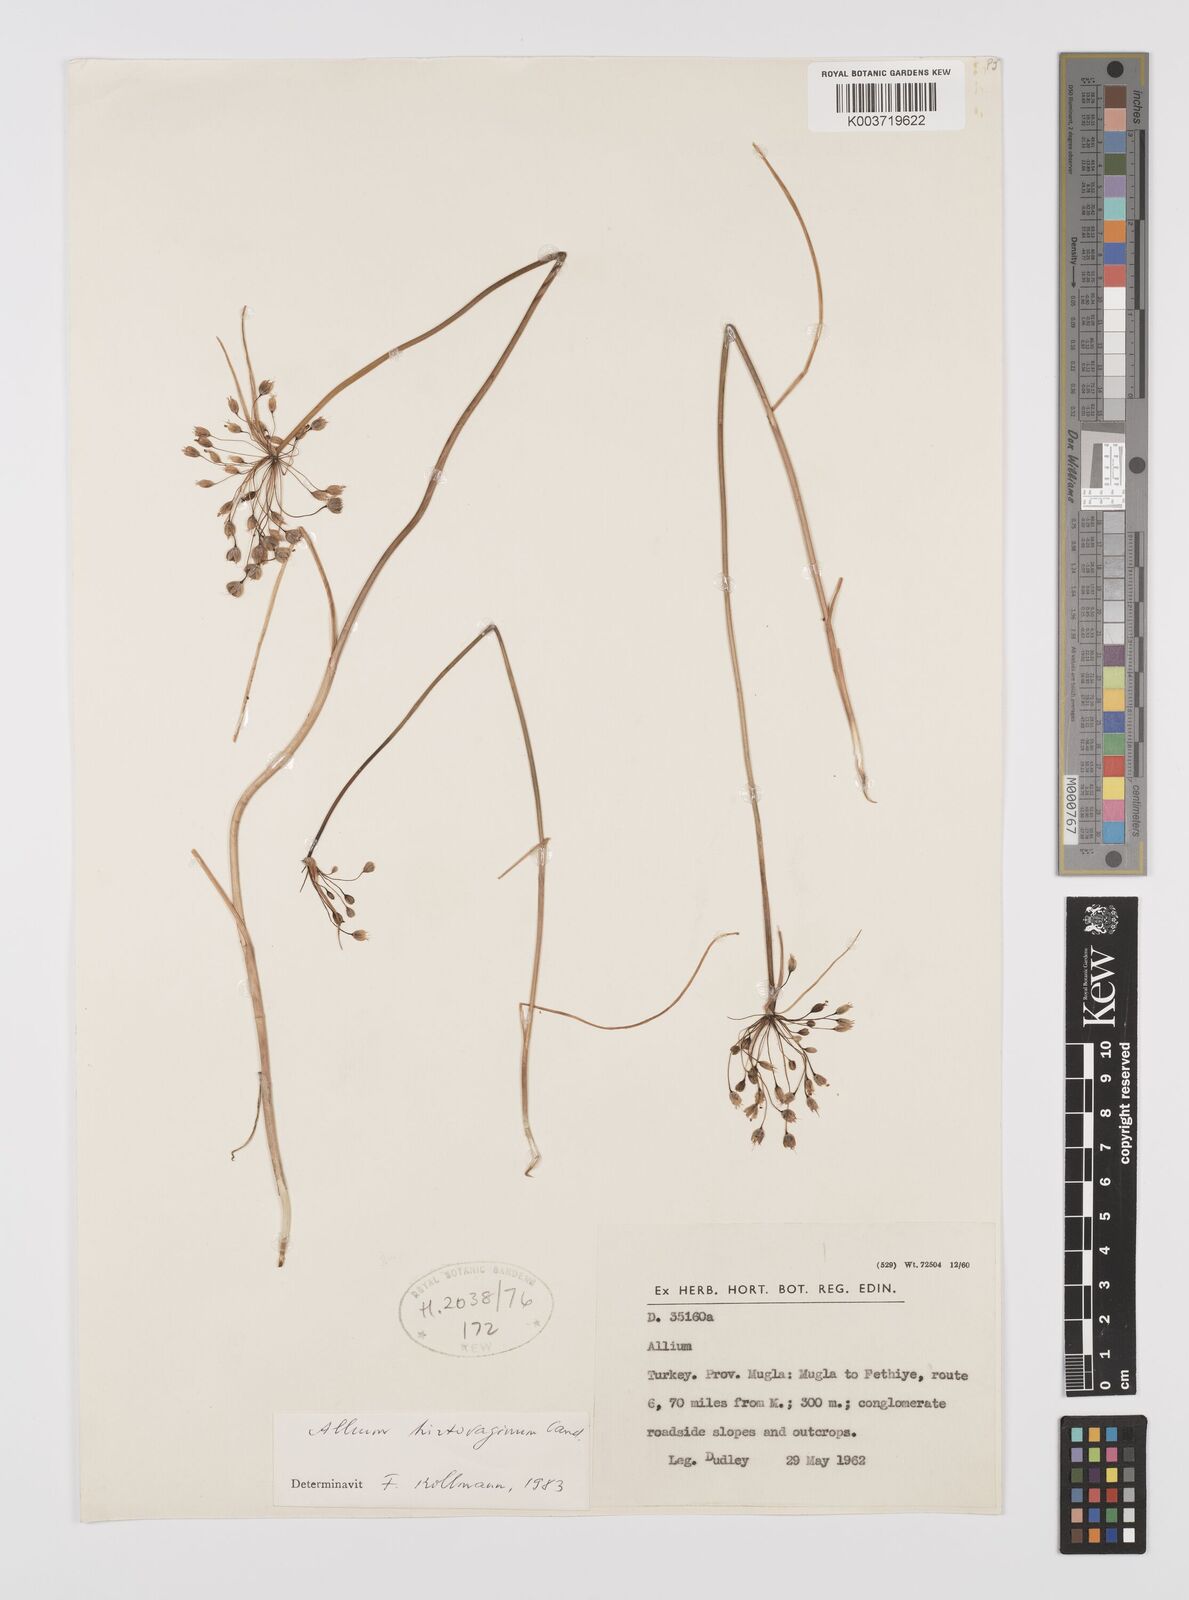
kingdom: Plantae
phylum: Tracheophyta
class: Liliopsida
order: Asparagales
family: Amaryllidaceae
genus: Allium
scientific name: Allium hirtovaginum
